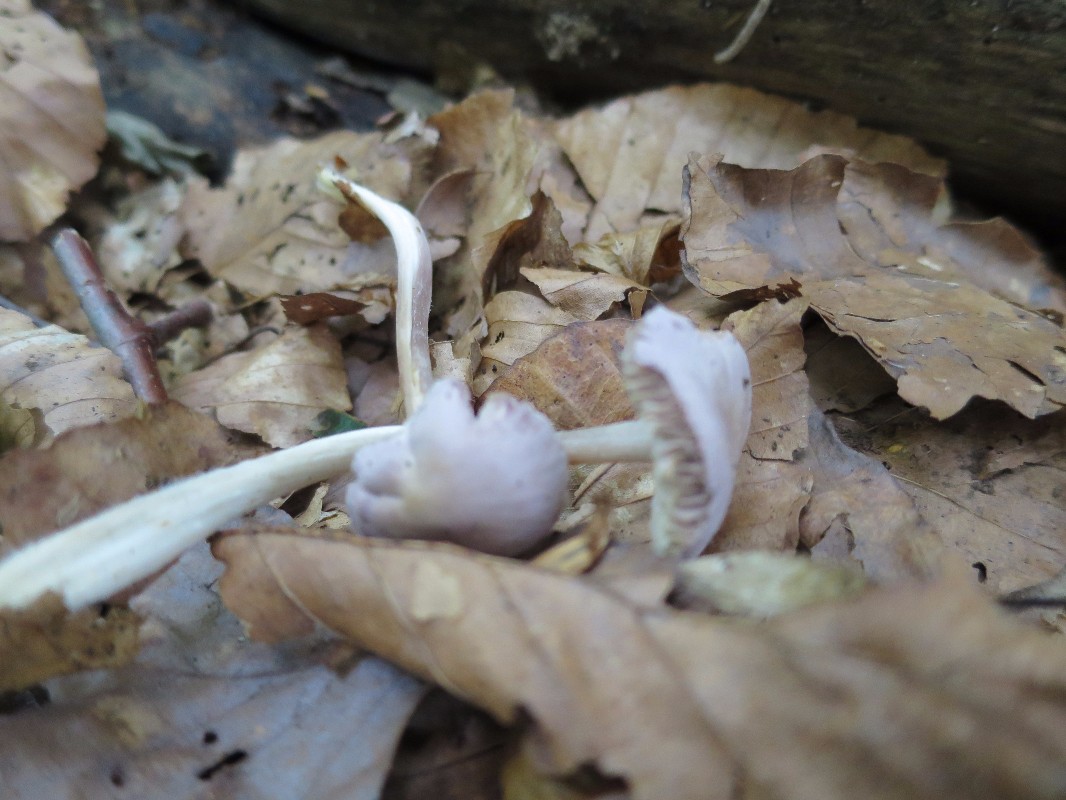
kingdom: Fungi
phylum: Basidiomycota
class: Agaricomycetes
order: Agaricales
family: Mycenaceae
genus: Mycena
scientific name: Mycena rosea
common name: rosa huesvamp
